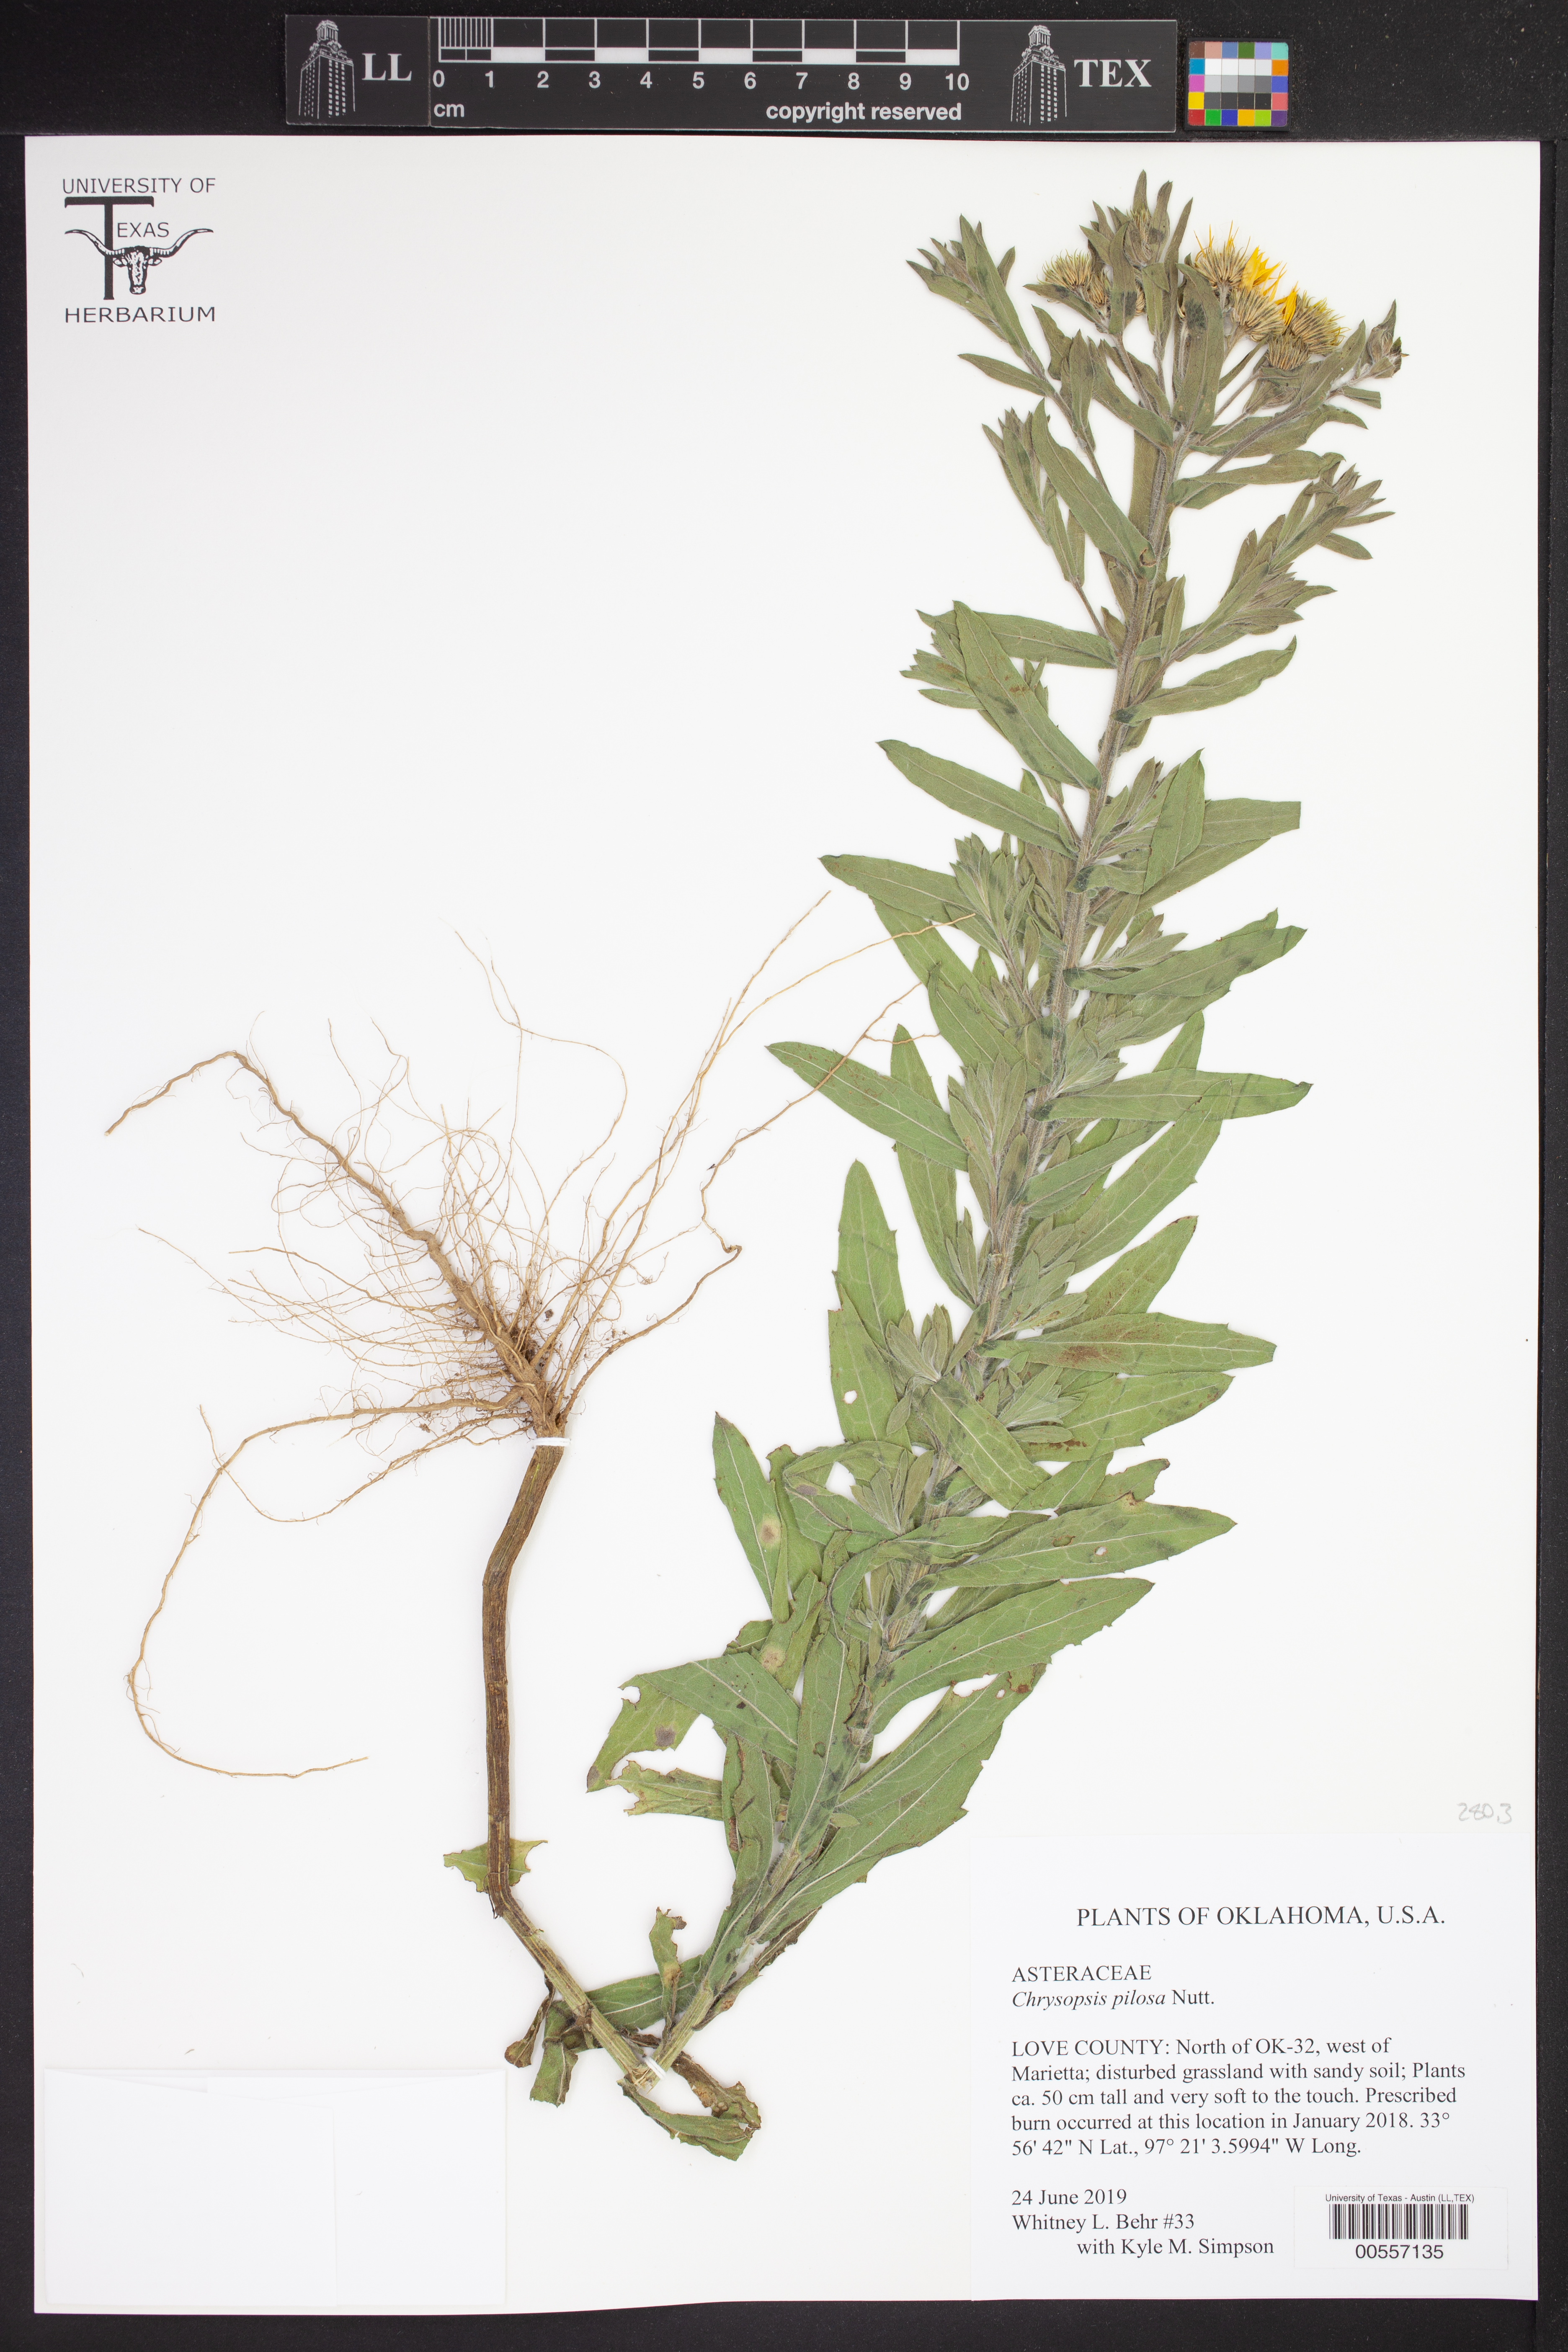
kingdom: Plantae
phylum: Tracheophyta
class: Magnoliopsida
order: Asterales
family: Asteraceae
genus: Chrysopsis
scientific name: Chrysopsis gossypina
